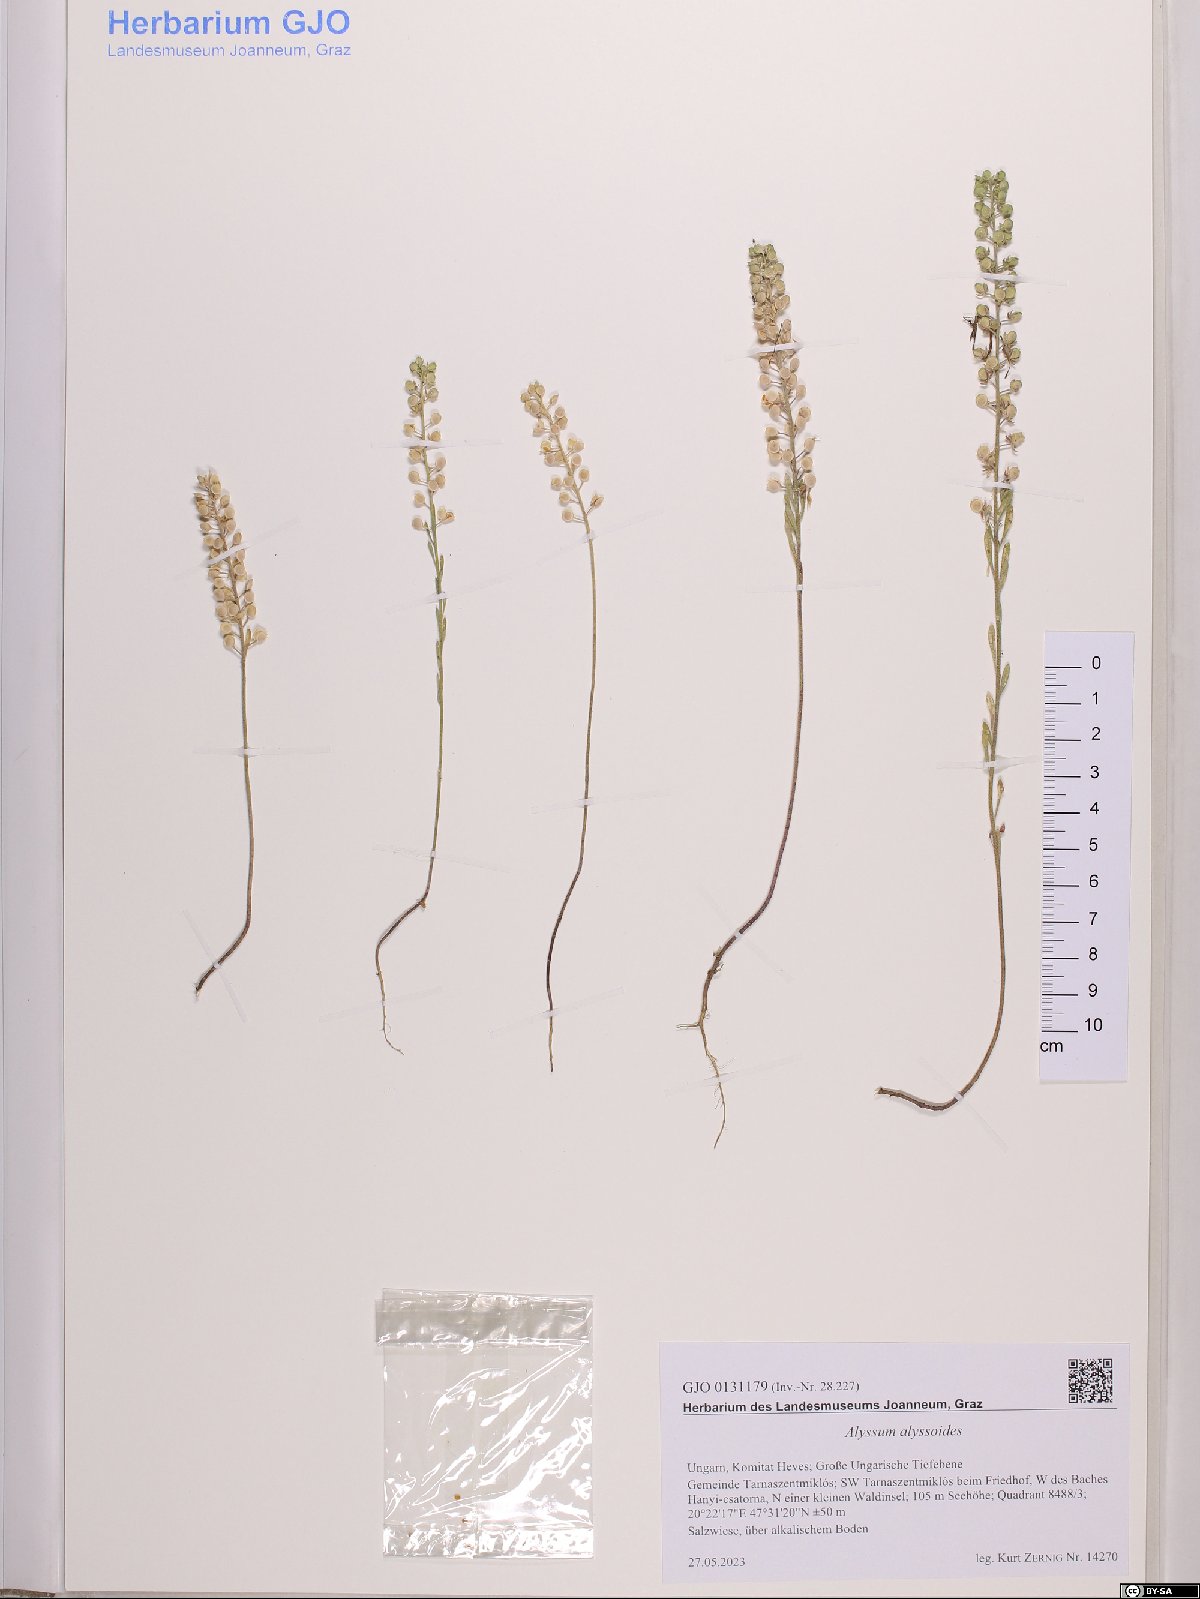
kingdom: Plantae
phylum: Tracheophyta
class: Magnoliopsida
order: Brassicales
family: Brassicaceae
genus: Alyssum
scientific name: Alyssum alyssoides
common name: Small alison
